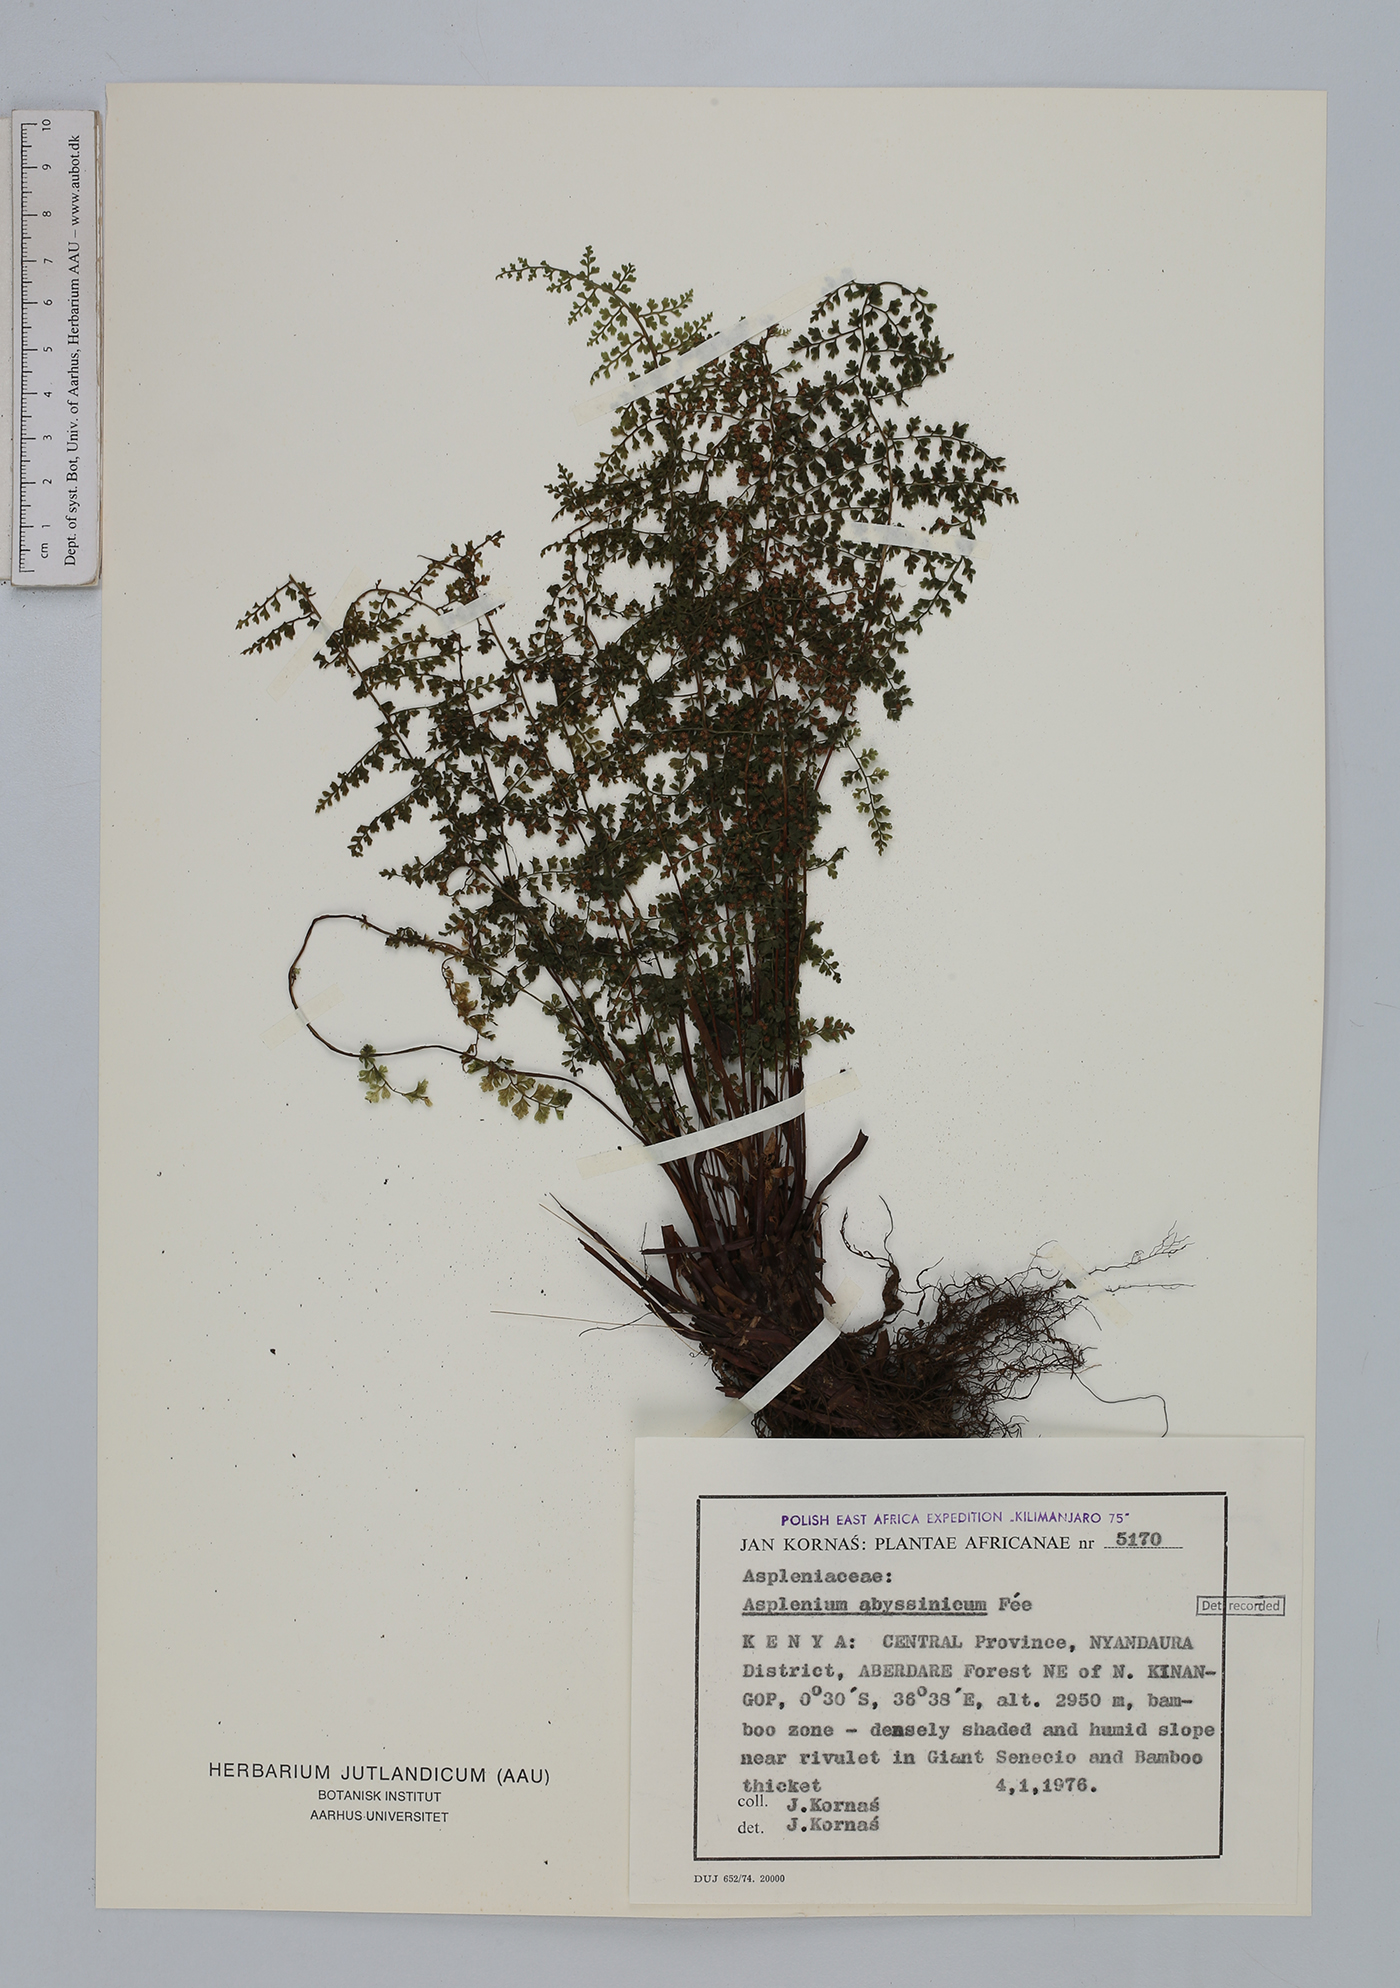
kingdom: Plantae
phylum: Tracheophyta
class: Polypodiopsida
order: Polypodiales
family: Aspleniaceae
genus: Asplenium
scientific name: Asplenium abyssinicum
